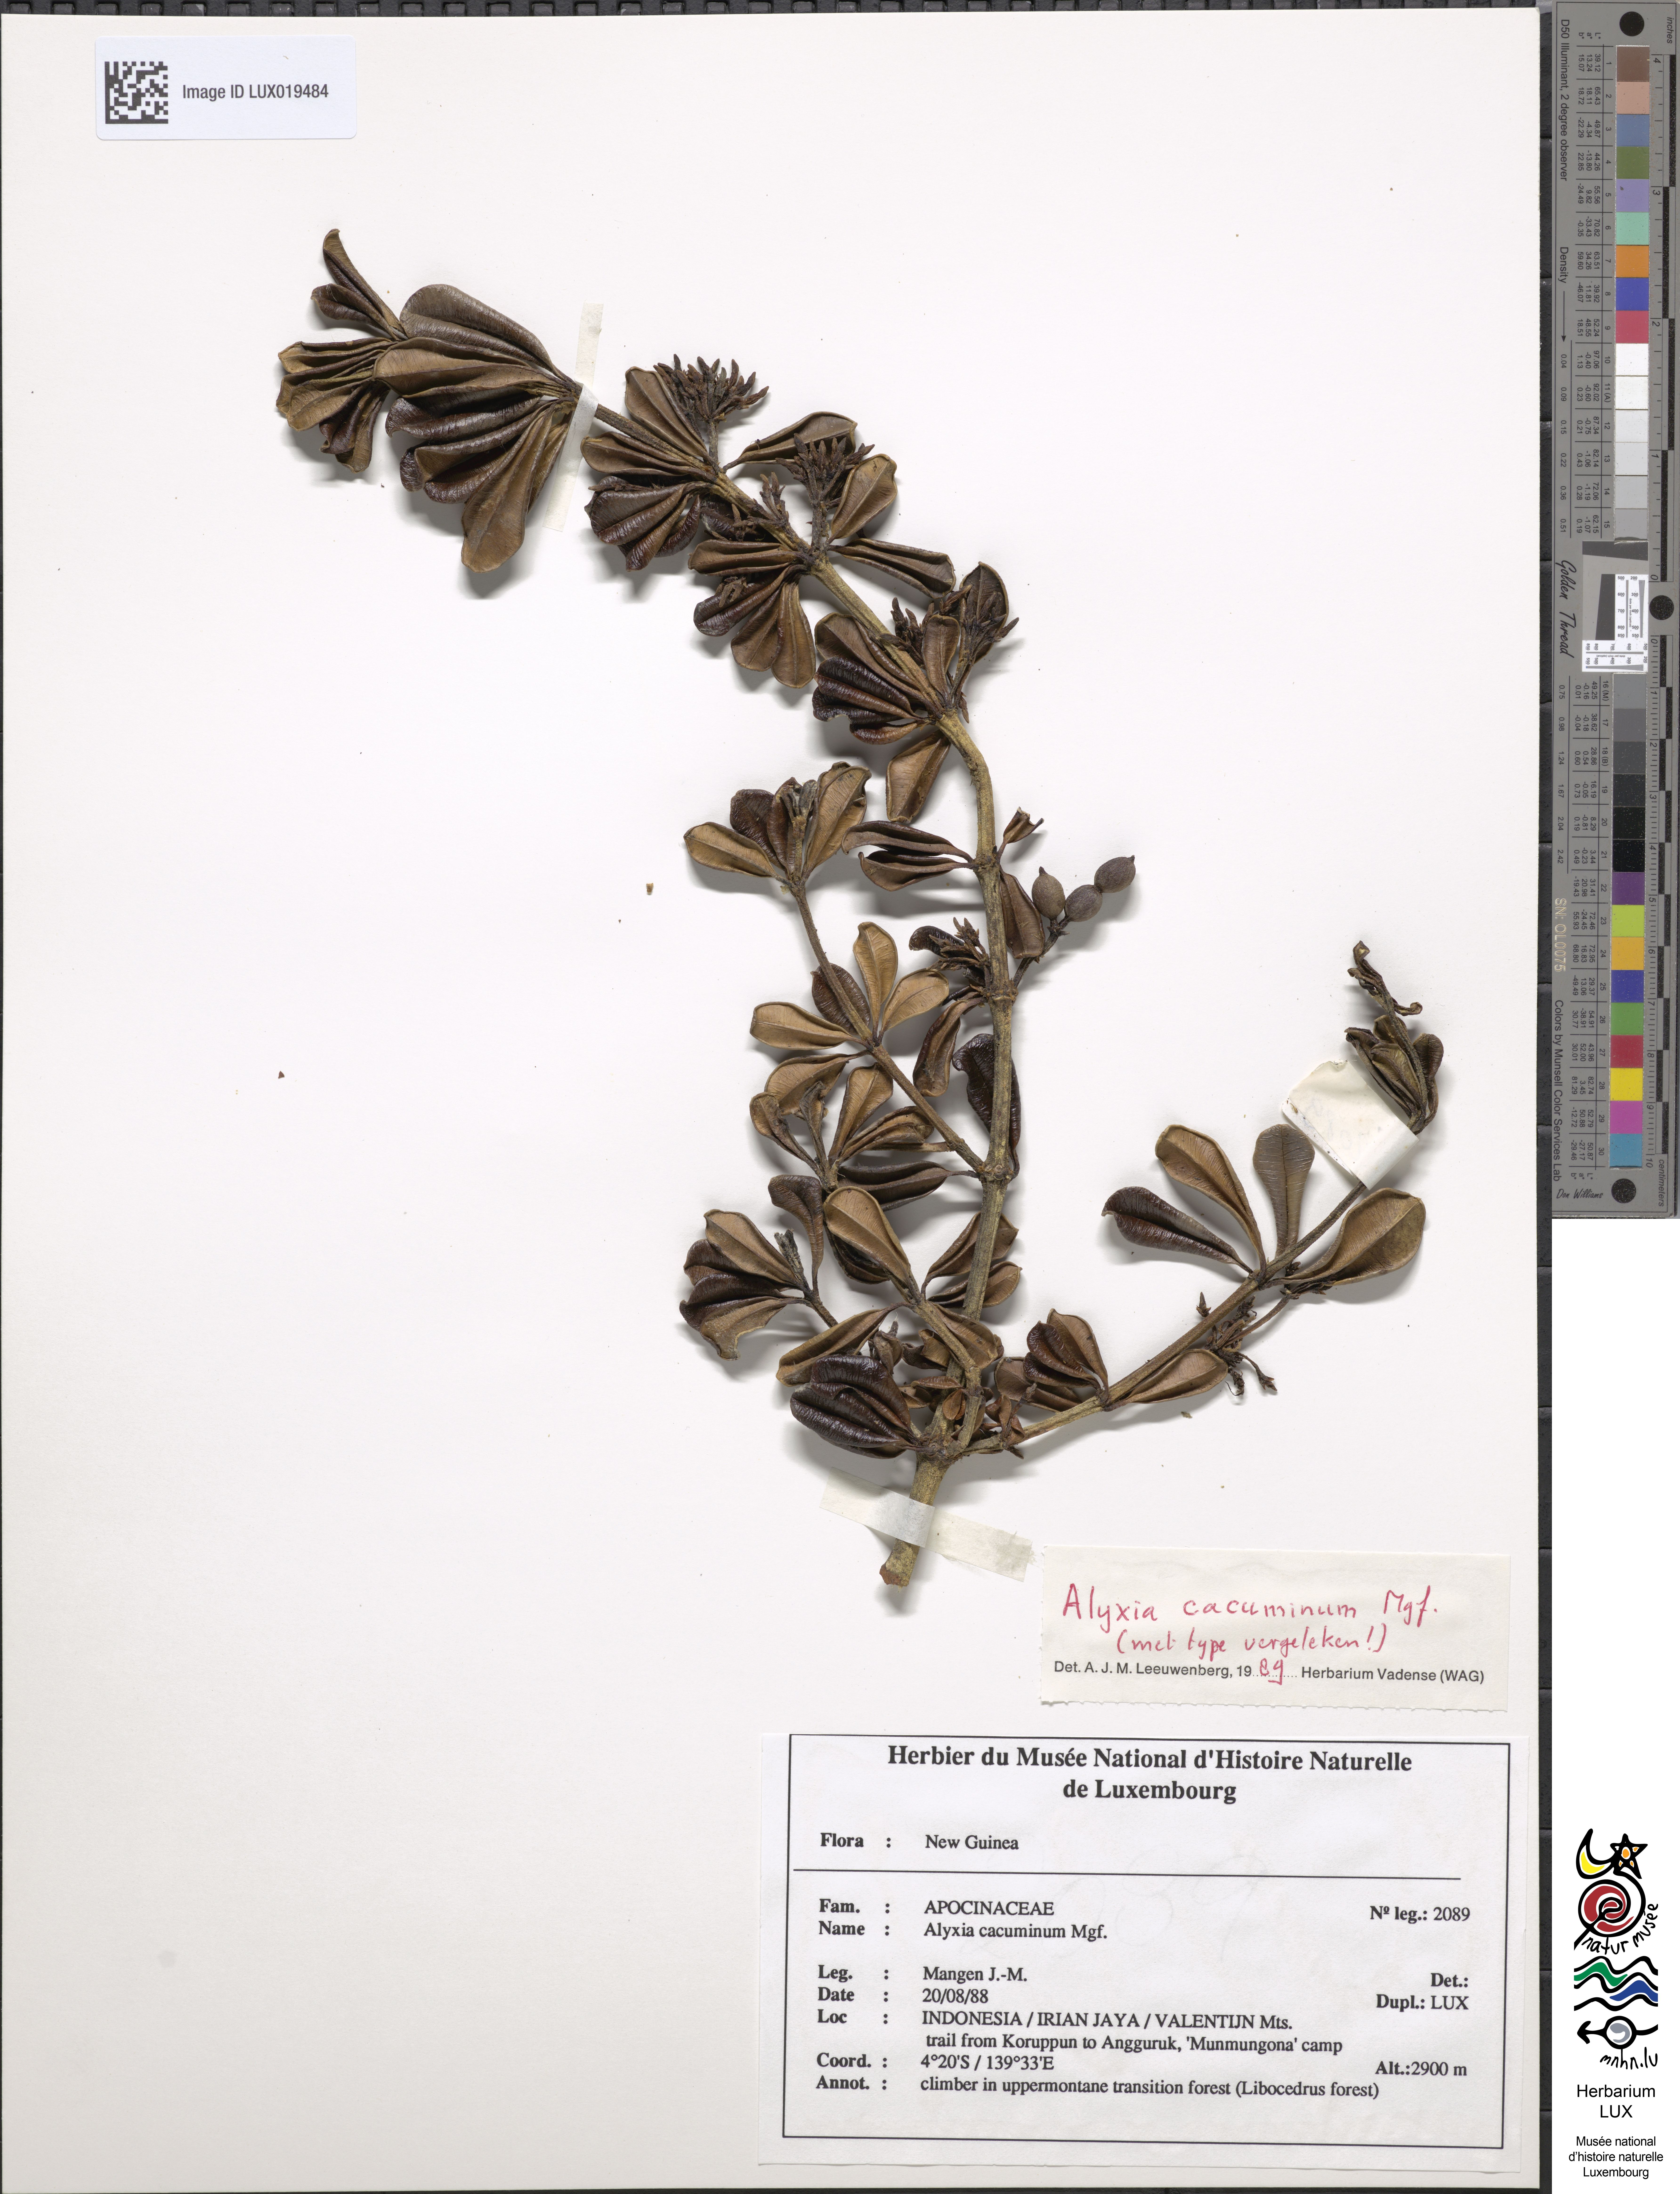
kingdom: Plantae
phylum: Tracheophyta
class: Magnoliopsida
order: Gentianales
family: Apocynaceae
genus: Alyxia
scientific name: Alyxia cacuminum
